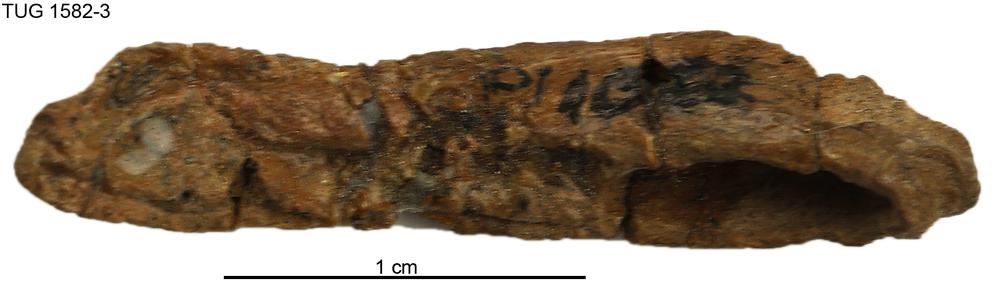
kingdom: Animalia
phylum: Chordata
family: Thursiidae
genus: Thursius
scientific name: Thursius estonicus
